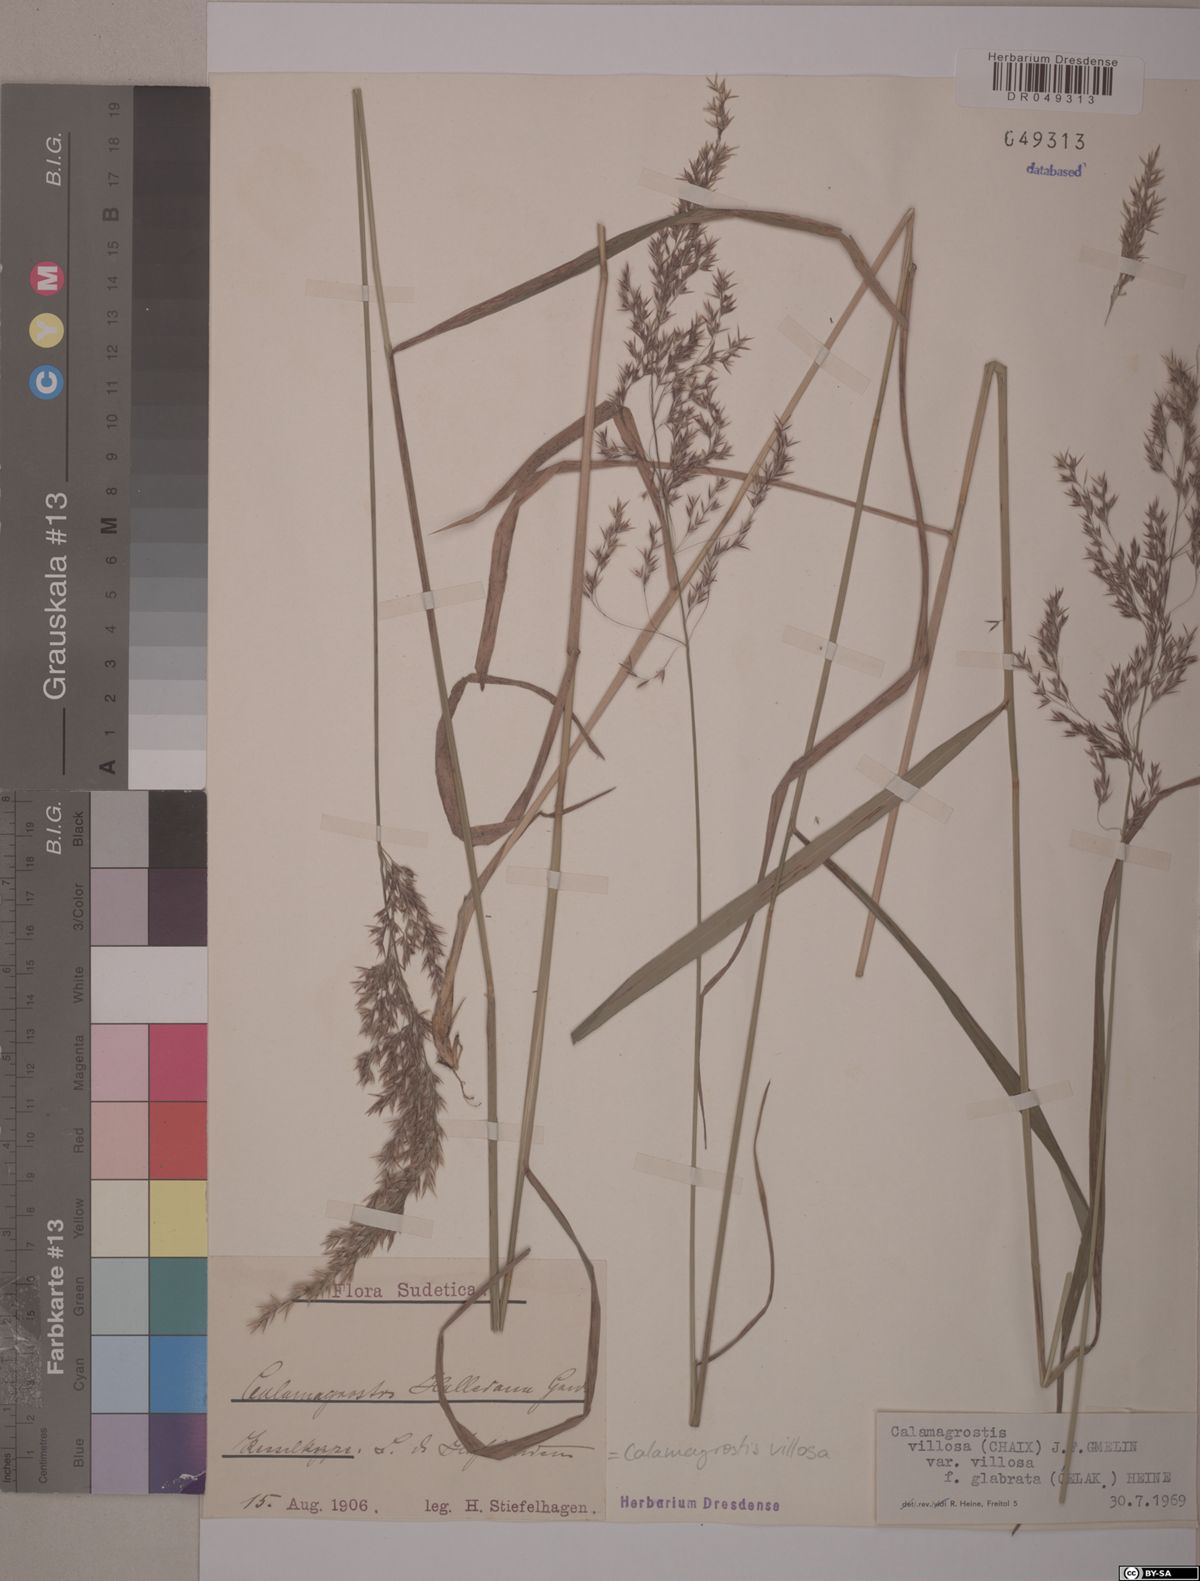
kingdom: Plantae
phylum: Tracheophyta
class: Liliopsida
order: Poales
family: Poaceae
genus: Calamagrostis
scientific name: Calamagrostis villosa
